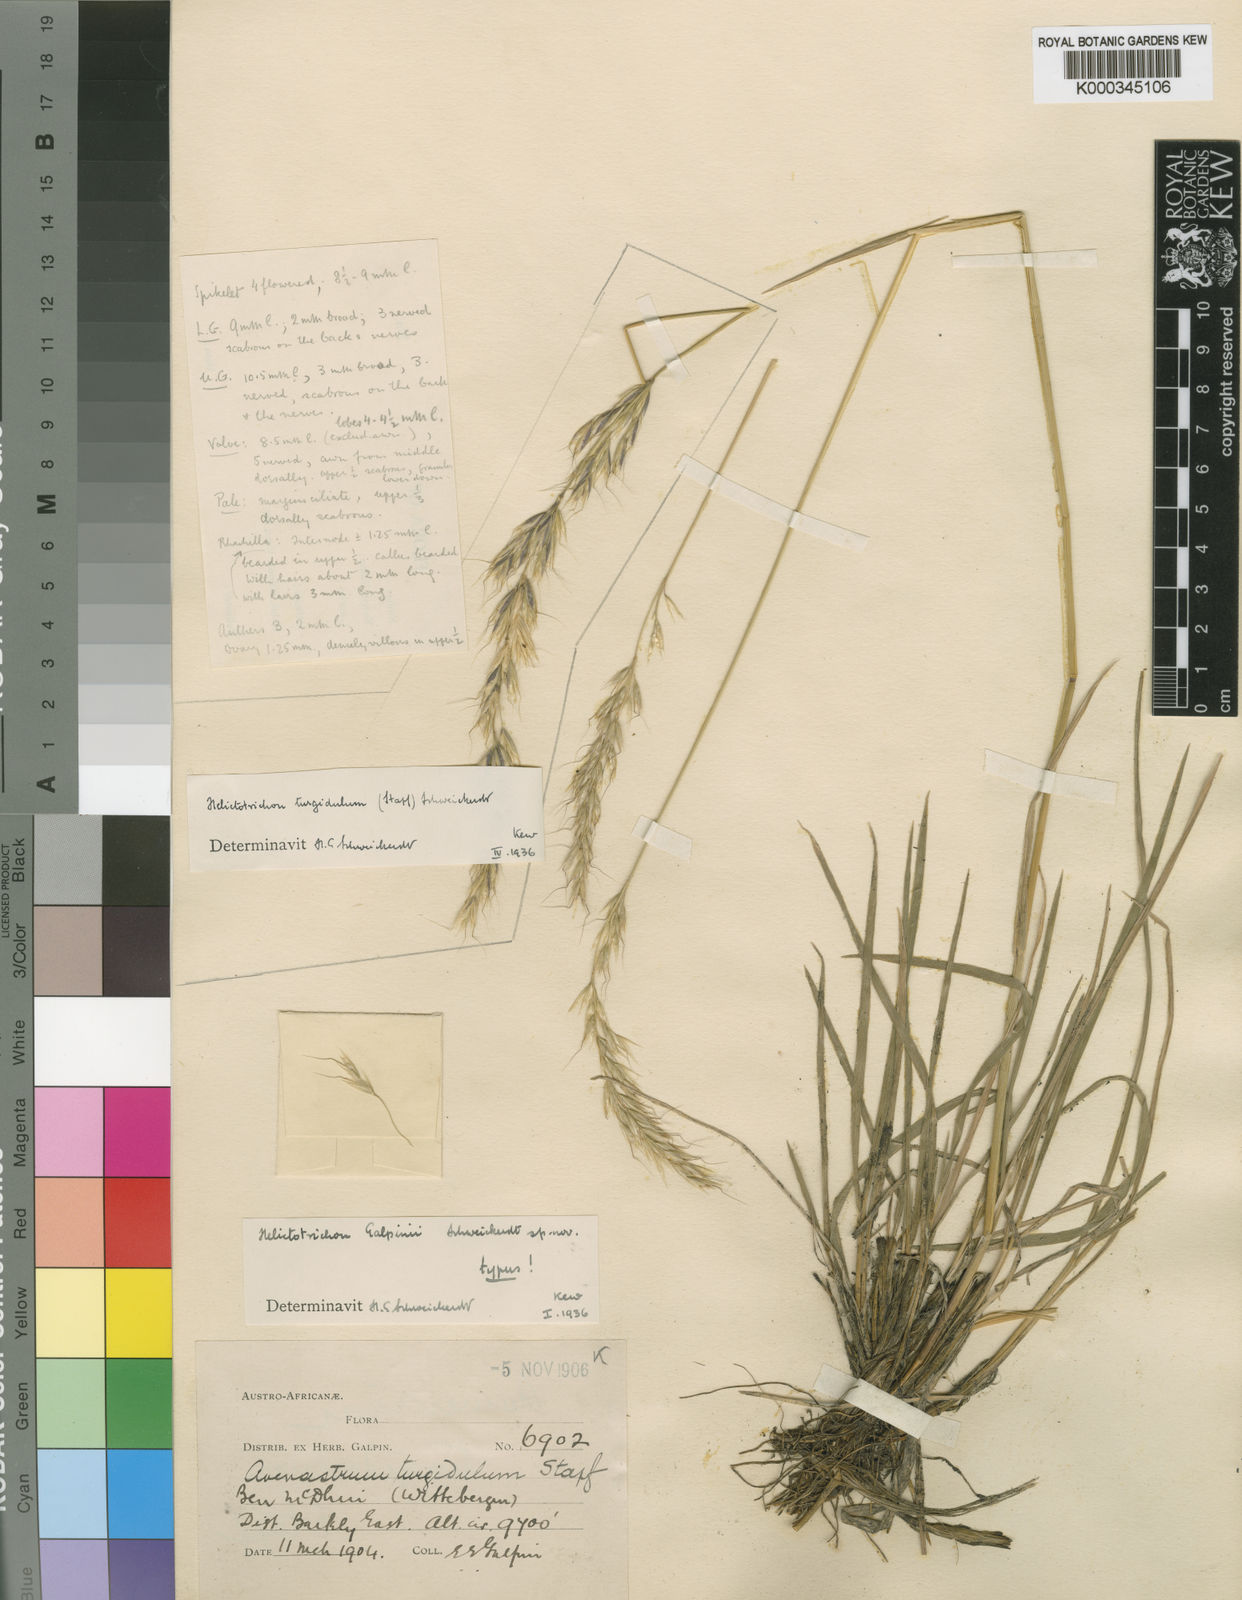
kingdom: Plantae
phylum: Tracheophyta
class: Liliopsida
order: Poales
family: Poaceae
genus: Trisetopsis
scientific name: Trisetopsis galpinii
